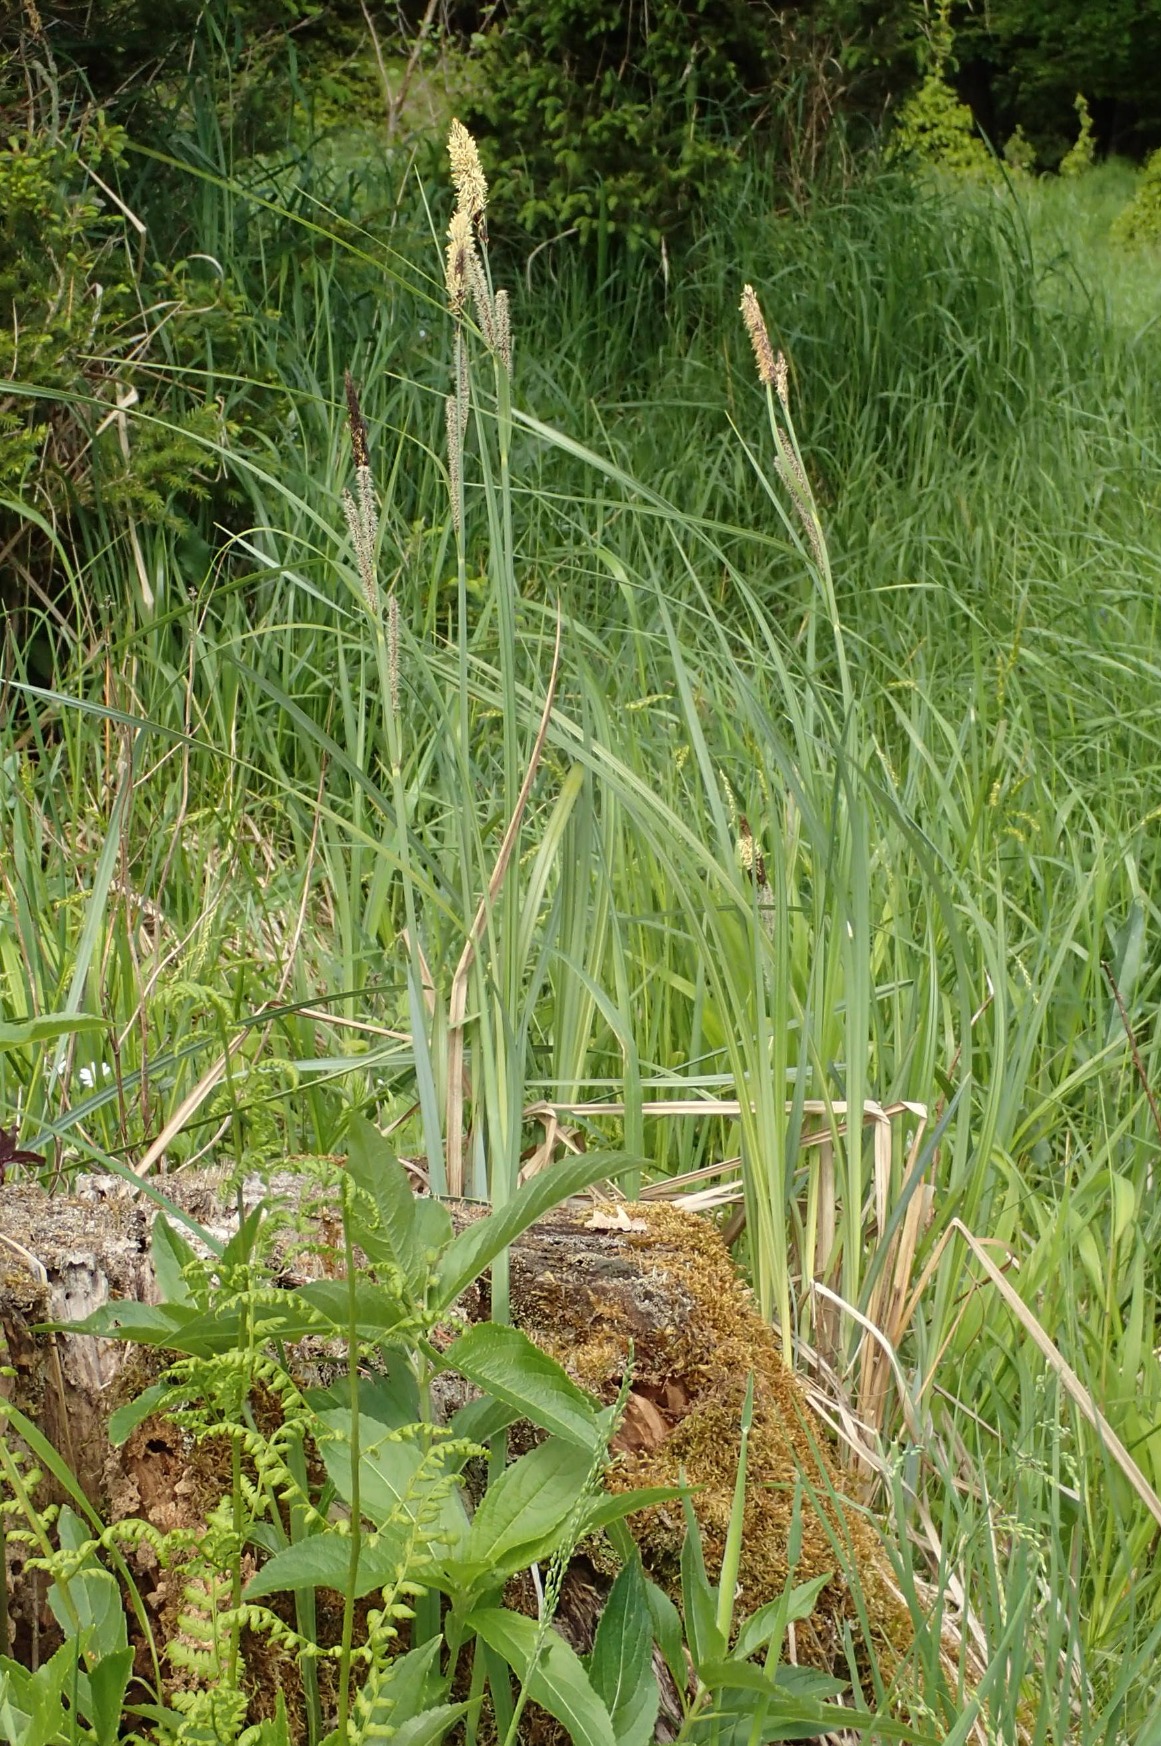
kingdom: Plantae
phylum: Tracheophyta
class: Liliopsida
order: Poales
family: Cyperaceae
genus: Carex
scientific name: Carex acutiformis
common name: Kær-star
